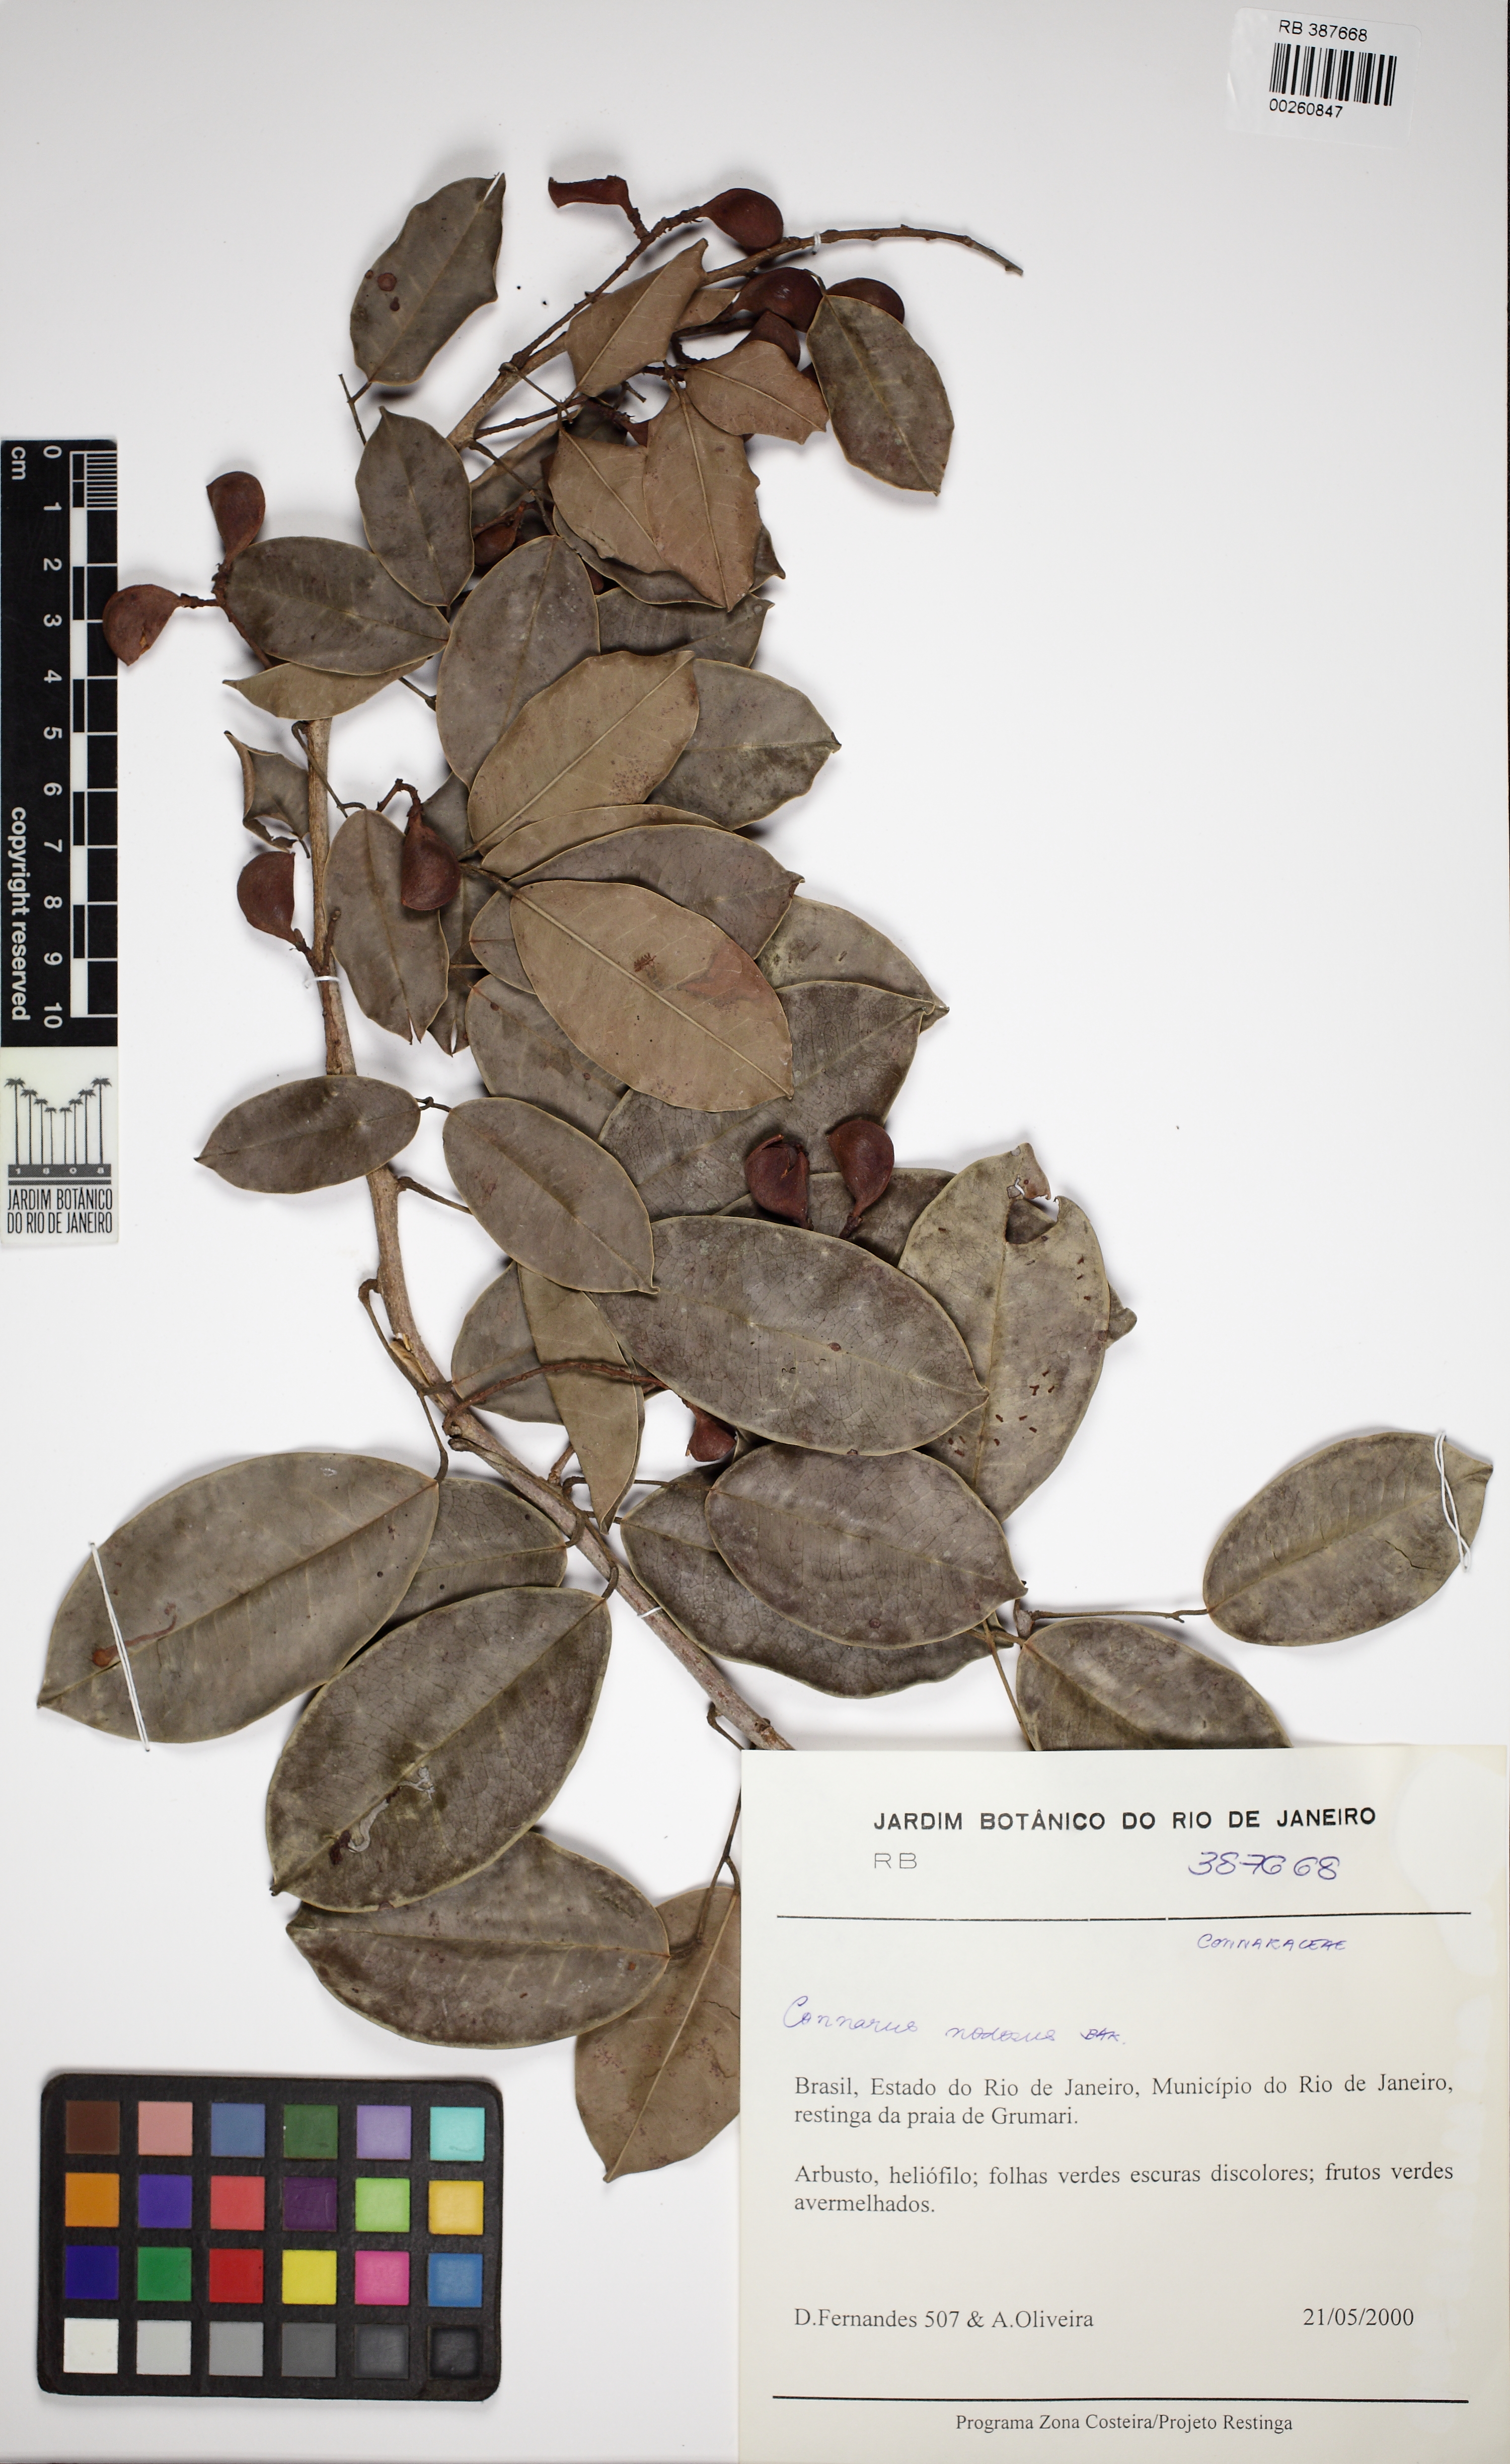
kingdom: Plantae
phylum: Tracheophyta
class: Magnoliopsida
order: Oxalidales
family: Connaraceae
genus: Connarus
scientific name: Connarus nodosus
